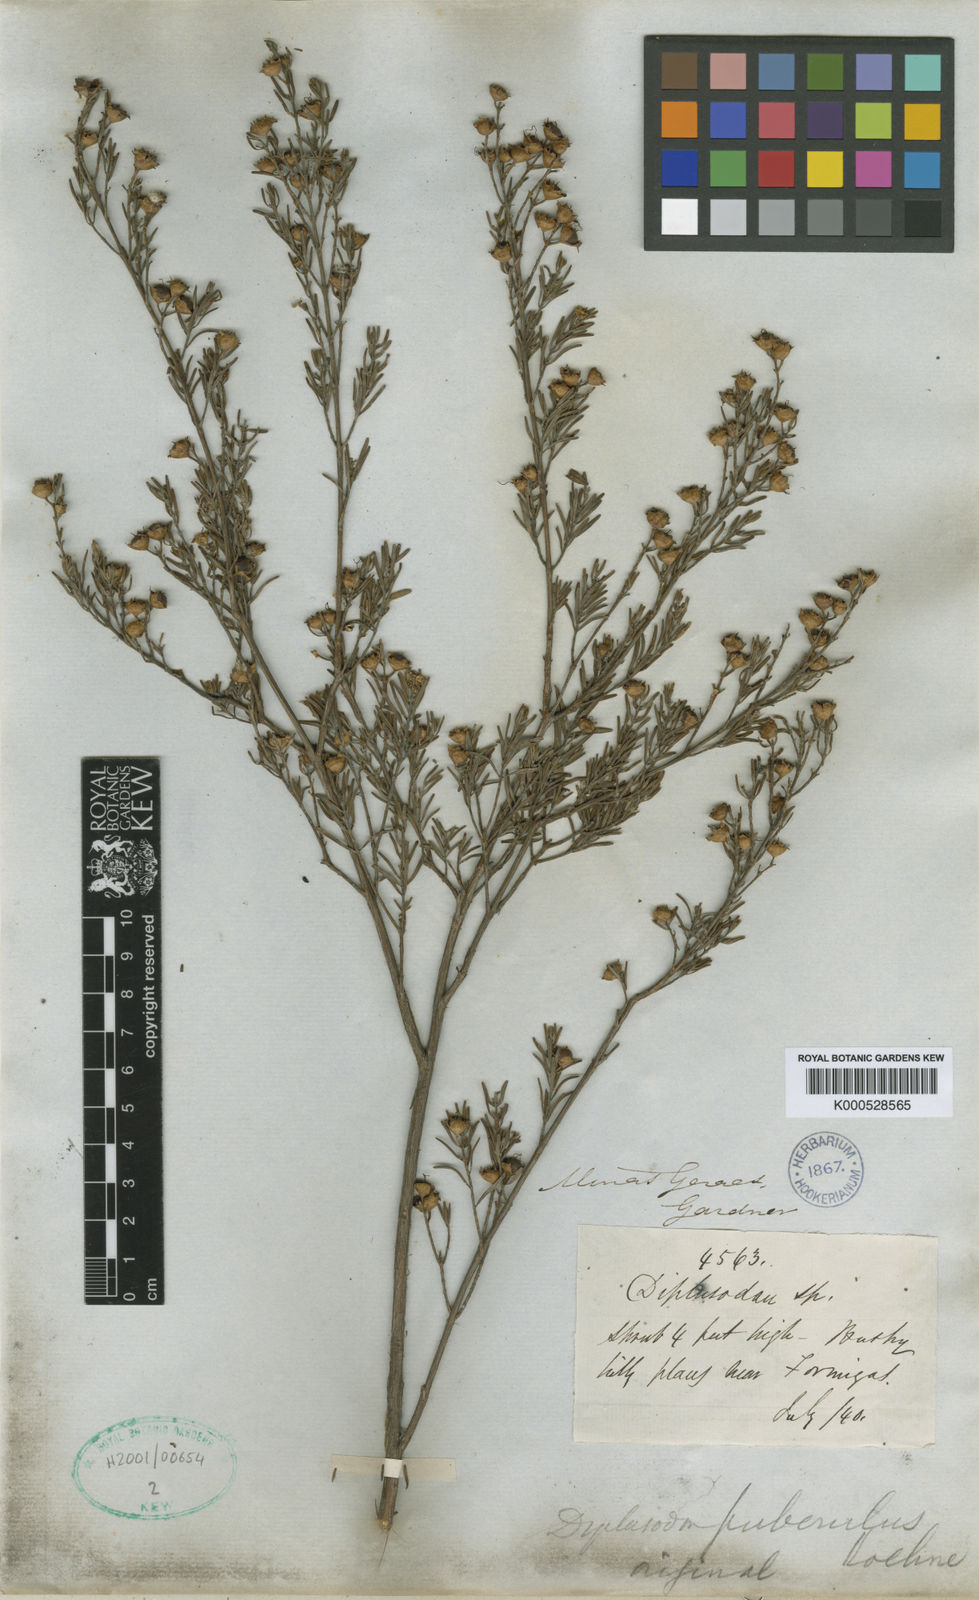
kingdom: Plantae
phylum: Tracheophyta
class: Magnoliopsida
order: Myrtales
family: Lythraceae
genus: Diplusodon
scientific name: Diplusodon rosmarinifolius
